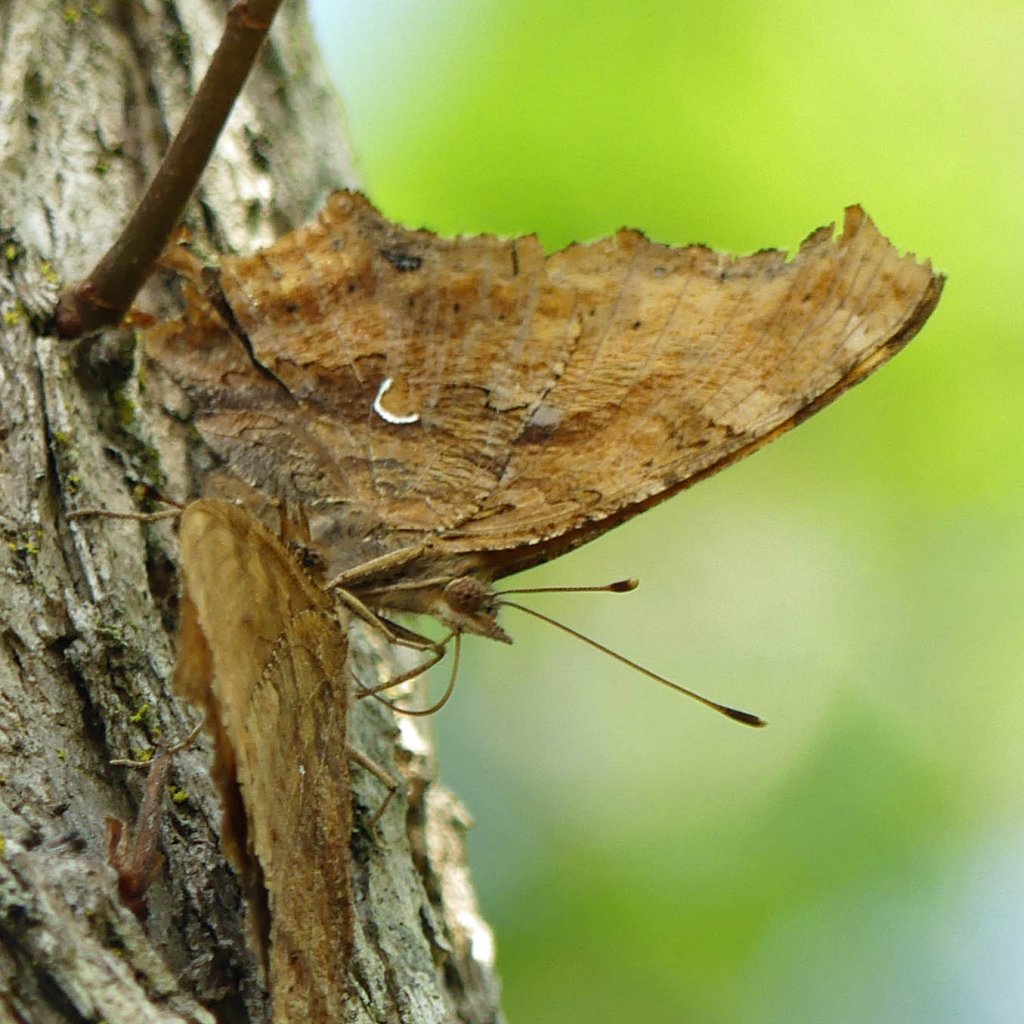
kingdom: Animalia
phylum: Arthropoda
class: Insecta
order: Lepidoptera
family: Nymphalidae
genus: Polygonia
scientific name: Polygonia comma
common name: Eastern Comma
